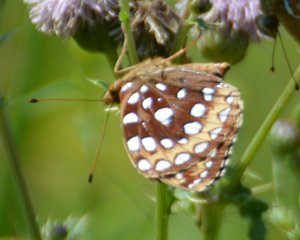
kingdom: Animalia
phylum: Arthropoda
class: Insecta
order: Lepidoptera
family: Nymphalidae
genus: Speyeria
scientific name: Speyeria cybele
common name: Great Spangled Fritillary
